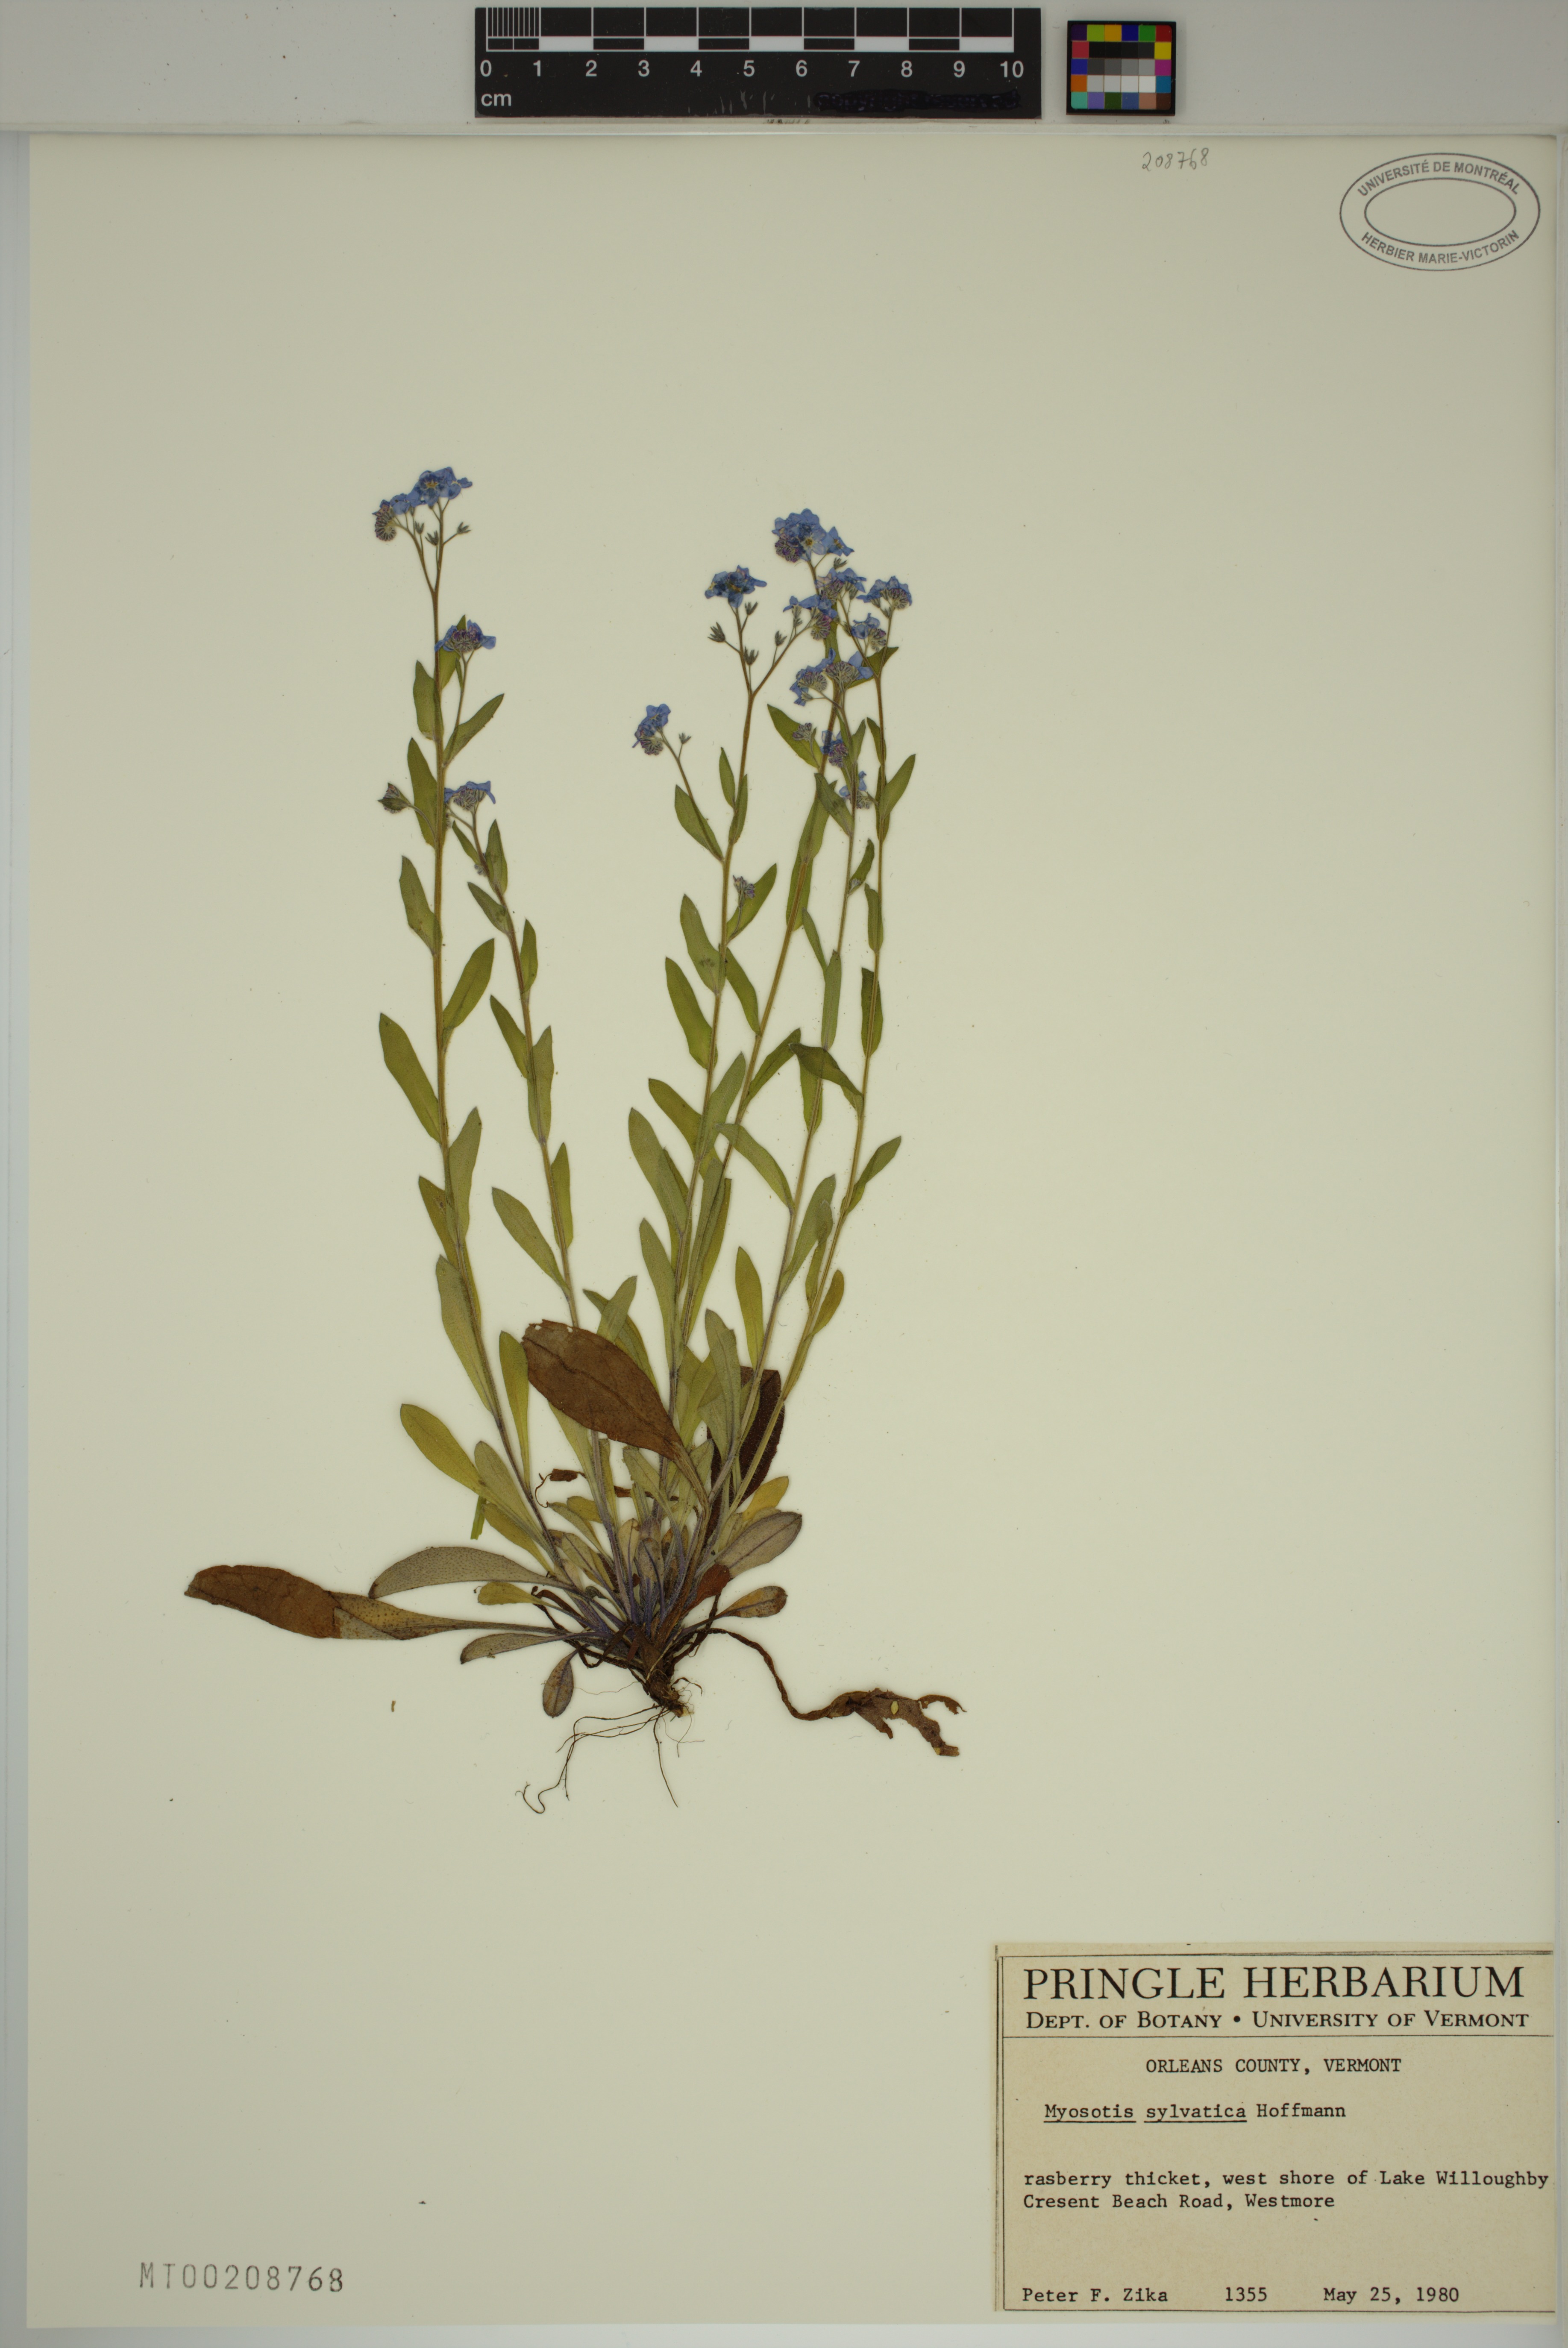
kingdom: Plantae
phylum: Tracheophyta
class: Magnoliopsida
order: Boraginales
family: Boraginaceae
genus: Myosotis
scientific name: Myosotis sylvatica
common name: Wood forget-me-not
